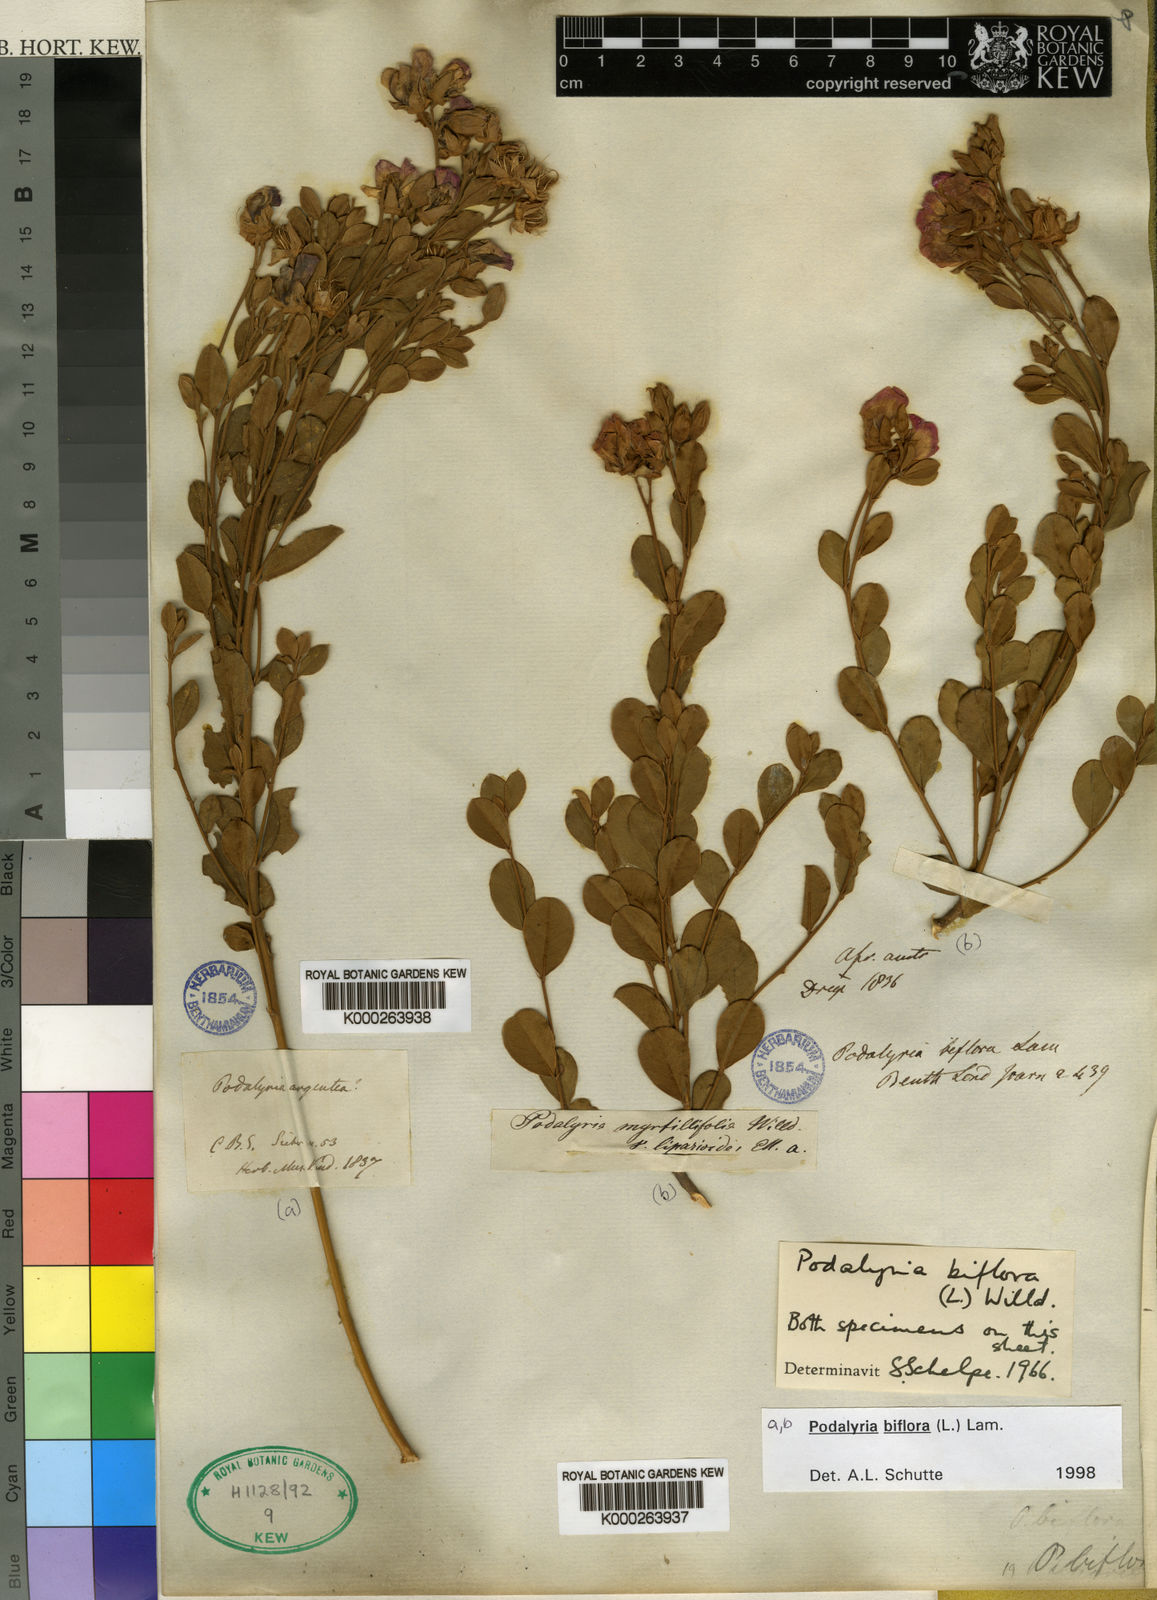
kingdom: Plantae
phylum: Tracheophyta
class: Magnoliopsida
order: Fabales
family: Fabaceae
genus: Podalyria
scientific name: Podalyria biflora
